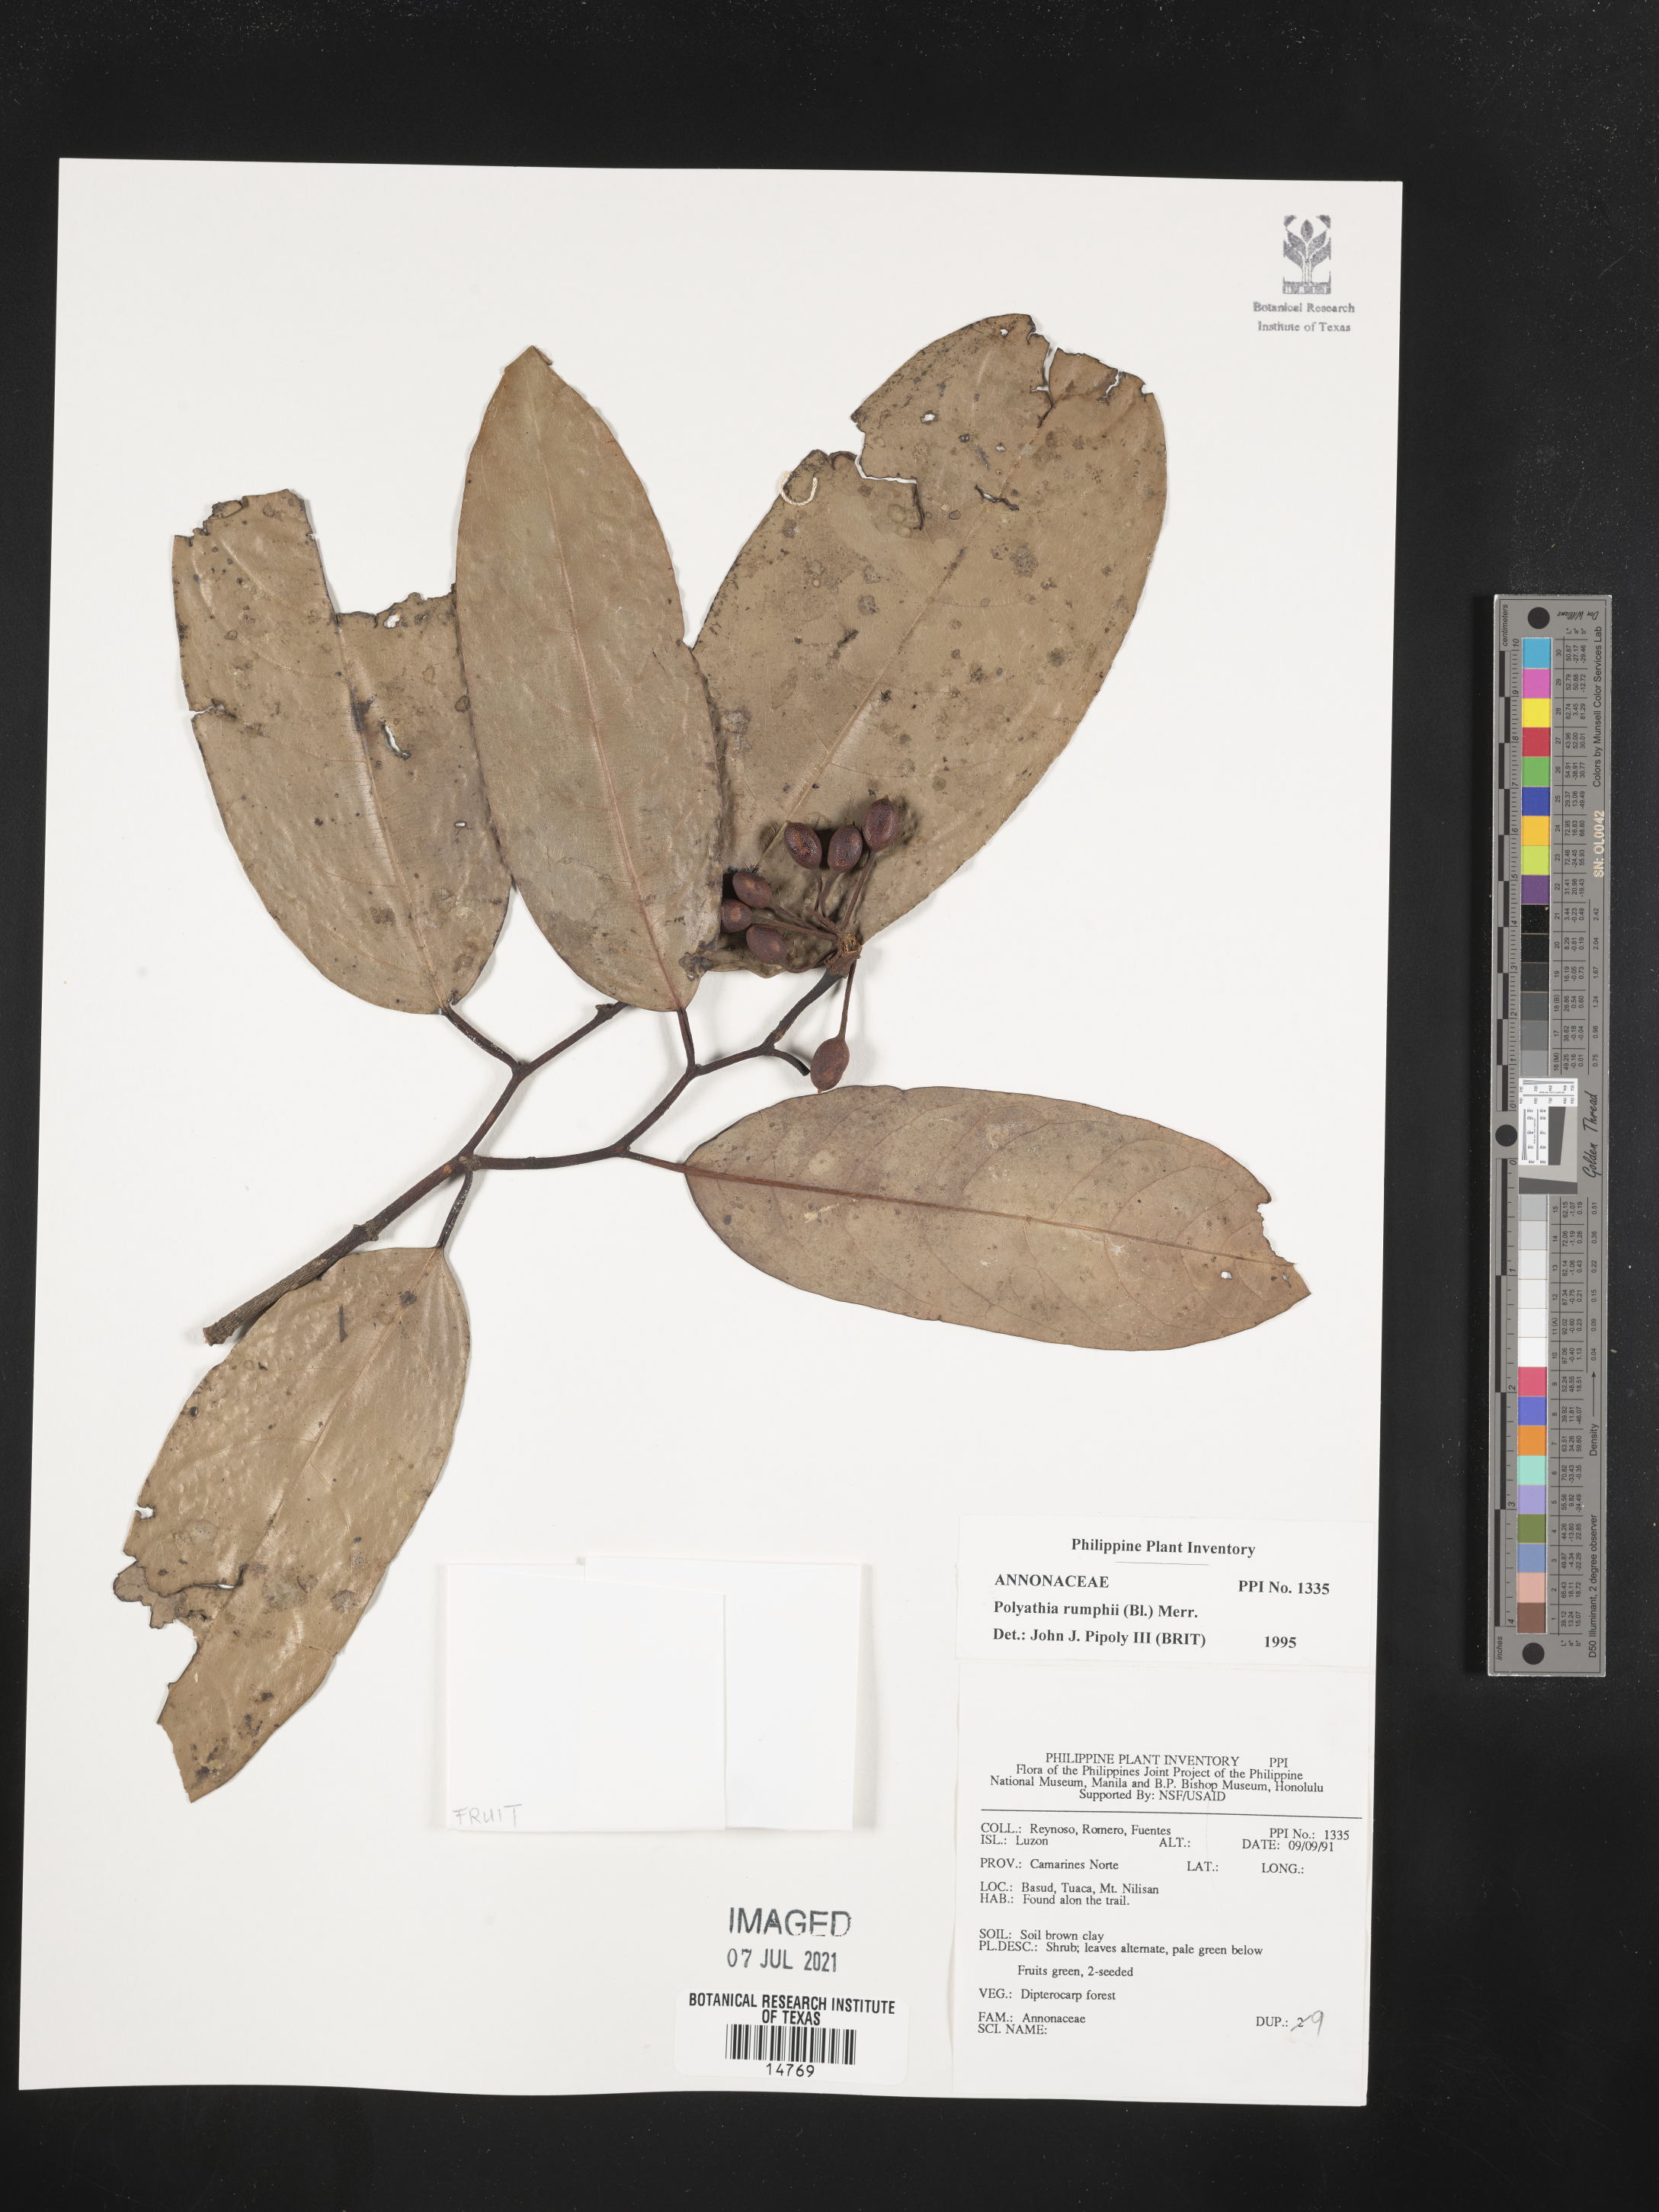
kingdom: Plantae
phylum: Tracheophyta
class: Magnoliopsida
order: Magnoliales
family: Annonaceae
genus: Hubera
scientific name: Hubera rumphii
